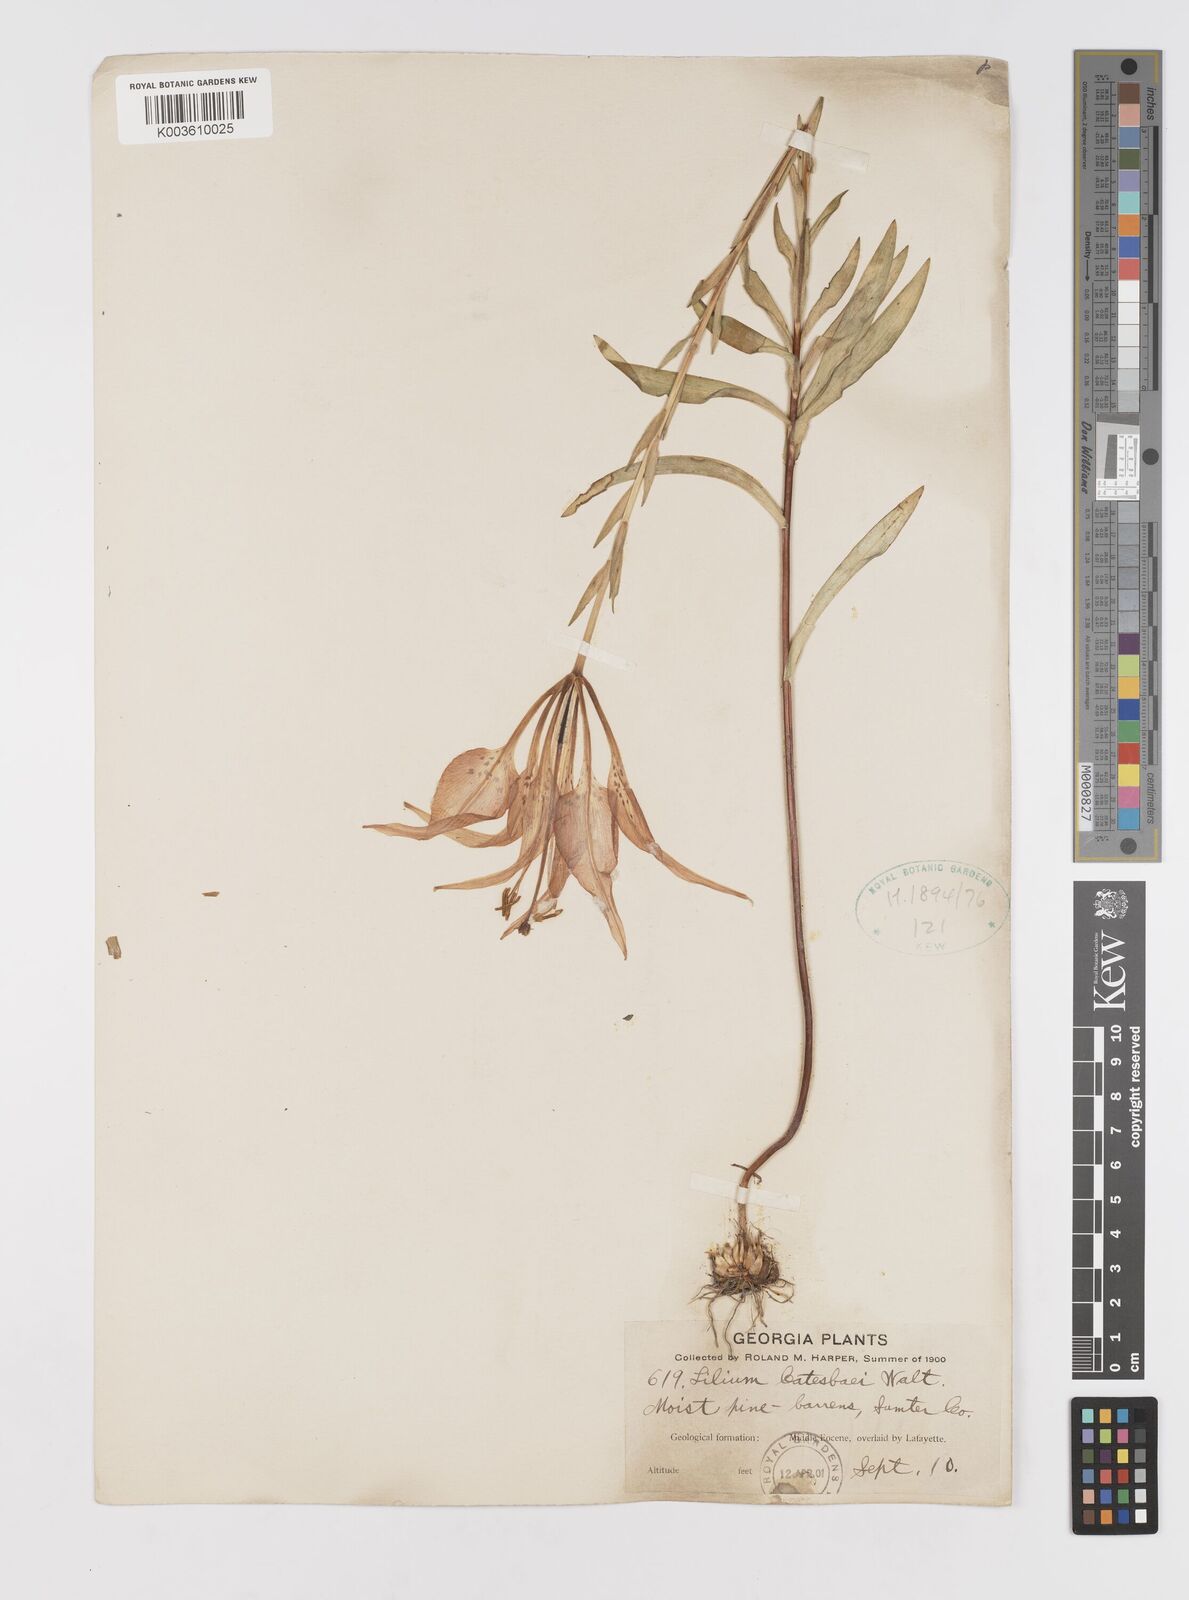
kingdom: Plantae
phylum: Tracheophyta
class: Liliopsida
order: Liliales
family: Liliaceae
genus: Lilium
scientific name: Lilium catesbaei
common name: Catesby's lily
